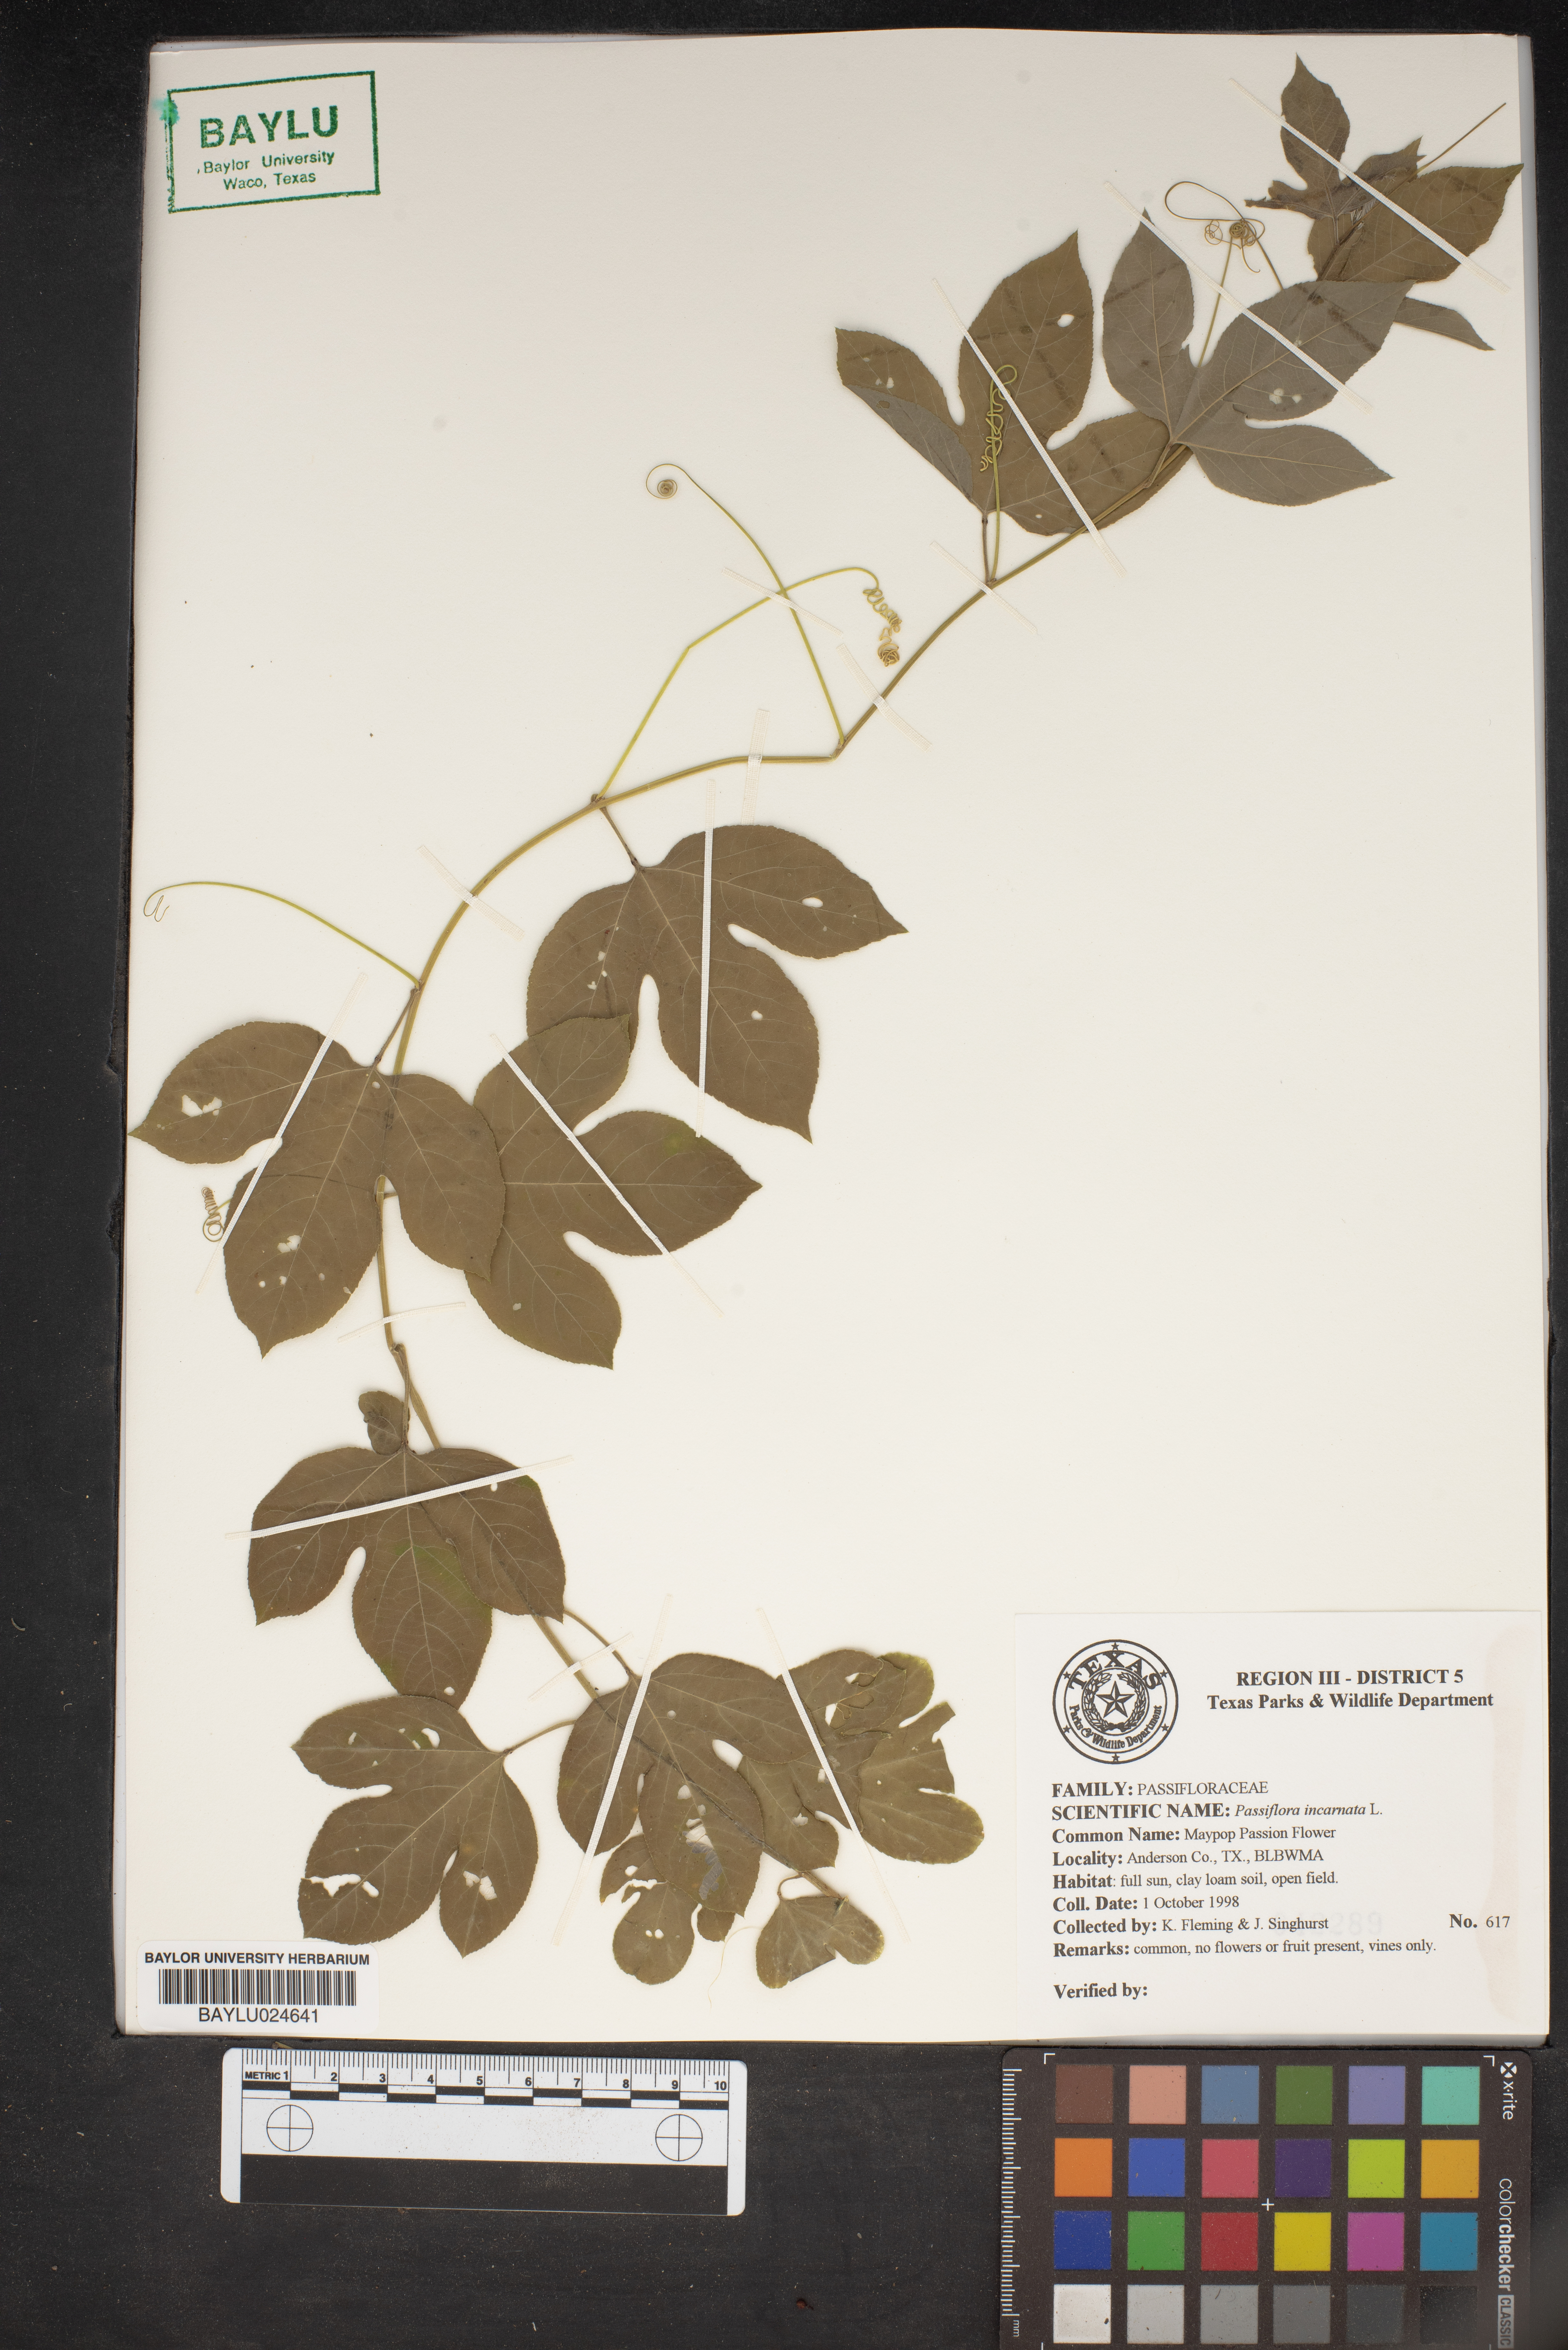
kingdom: Plantae
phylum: Tracheophyta
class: Magnoliopsida
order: Malpighiales
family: Passifloraceae
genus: Passiflora
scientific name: Passiflora incarnata
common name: Apricot-vine
